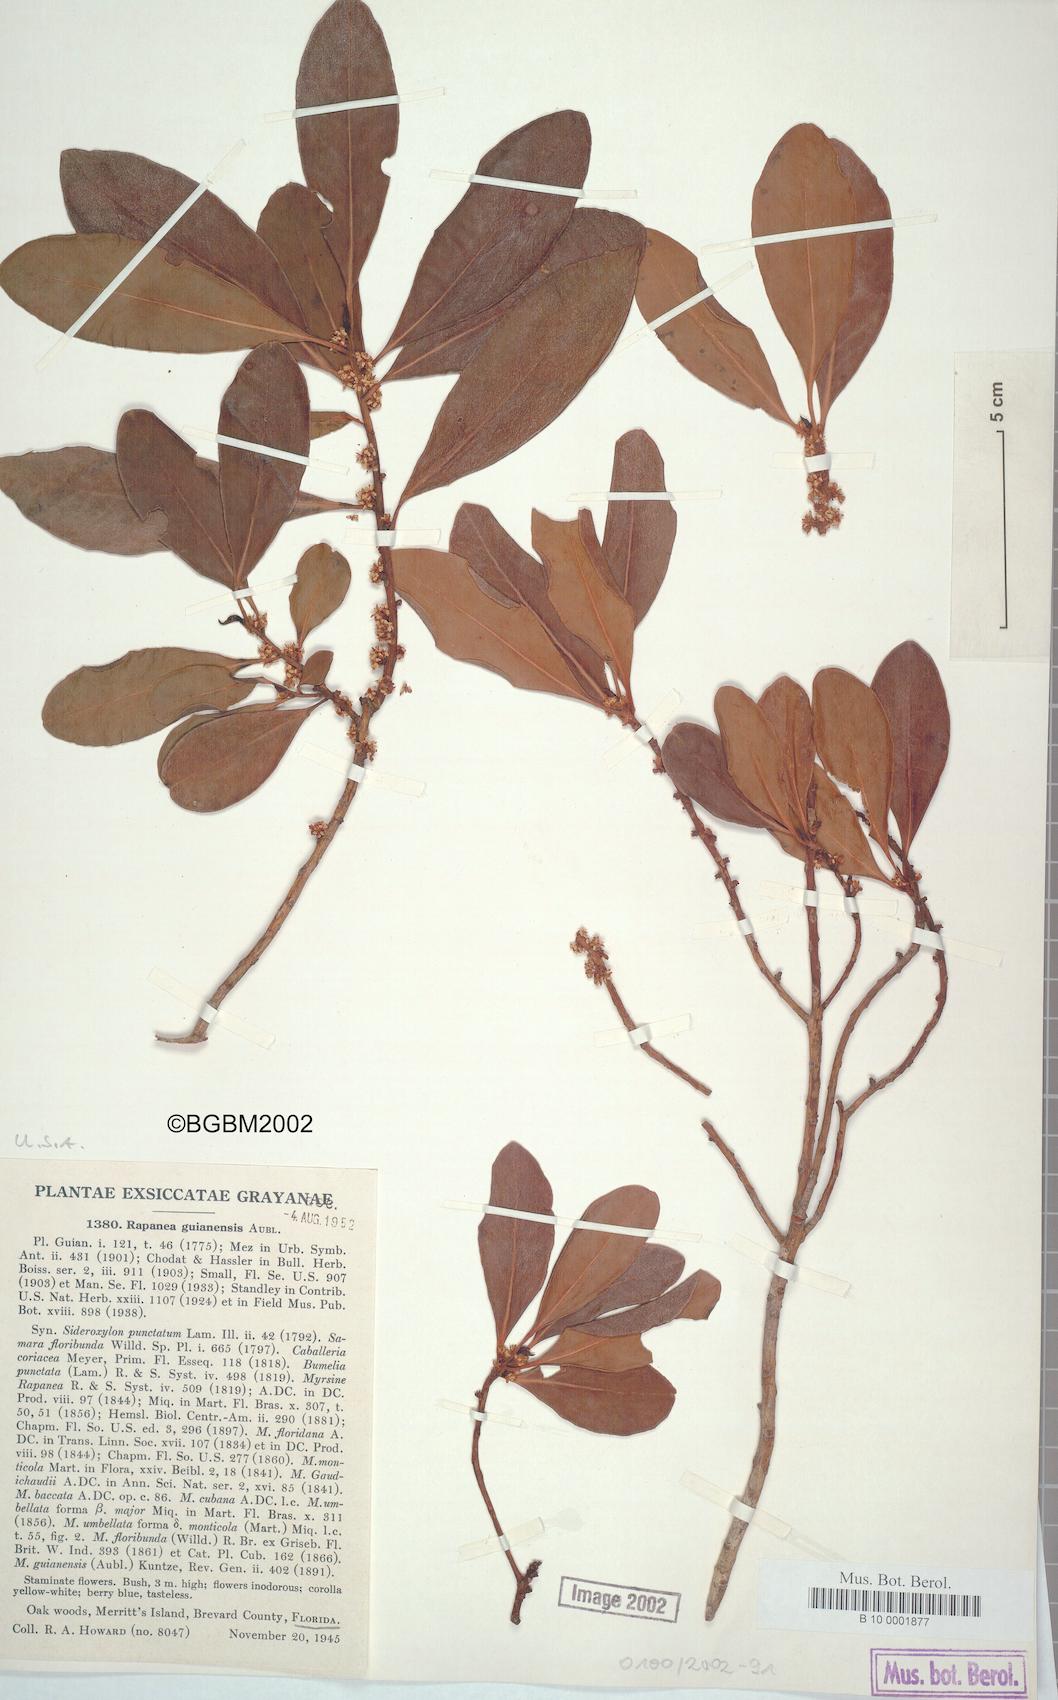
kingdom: Plantae
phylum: Tracheophyta
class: Magnoliopsida
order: Ericales
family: Primulaceae
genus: Myrsine
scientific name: Myrsine guianensis
